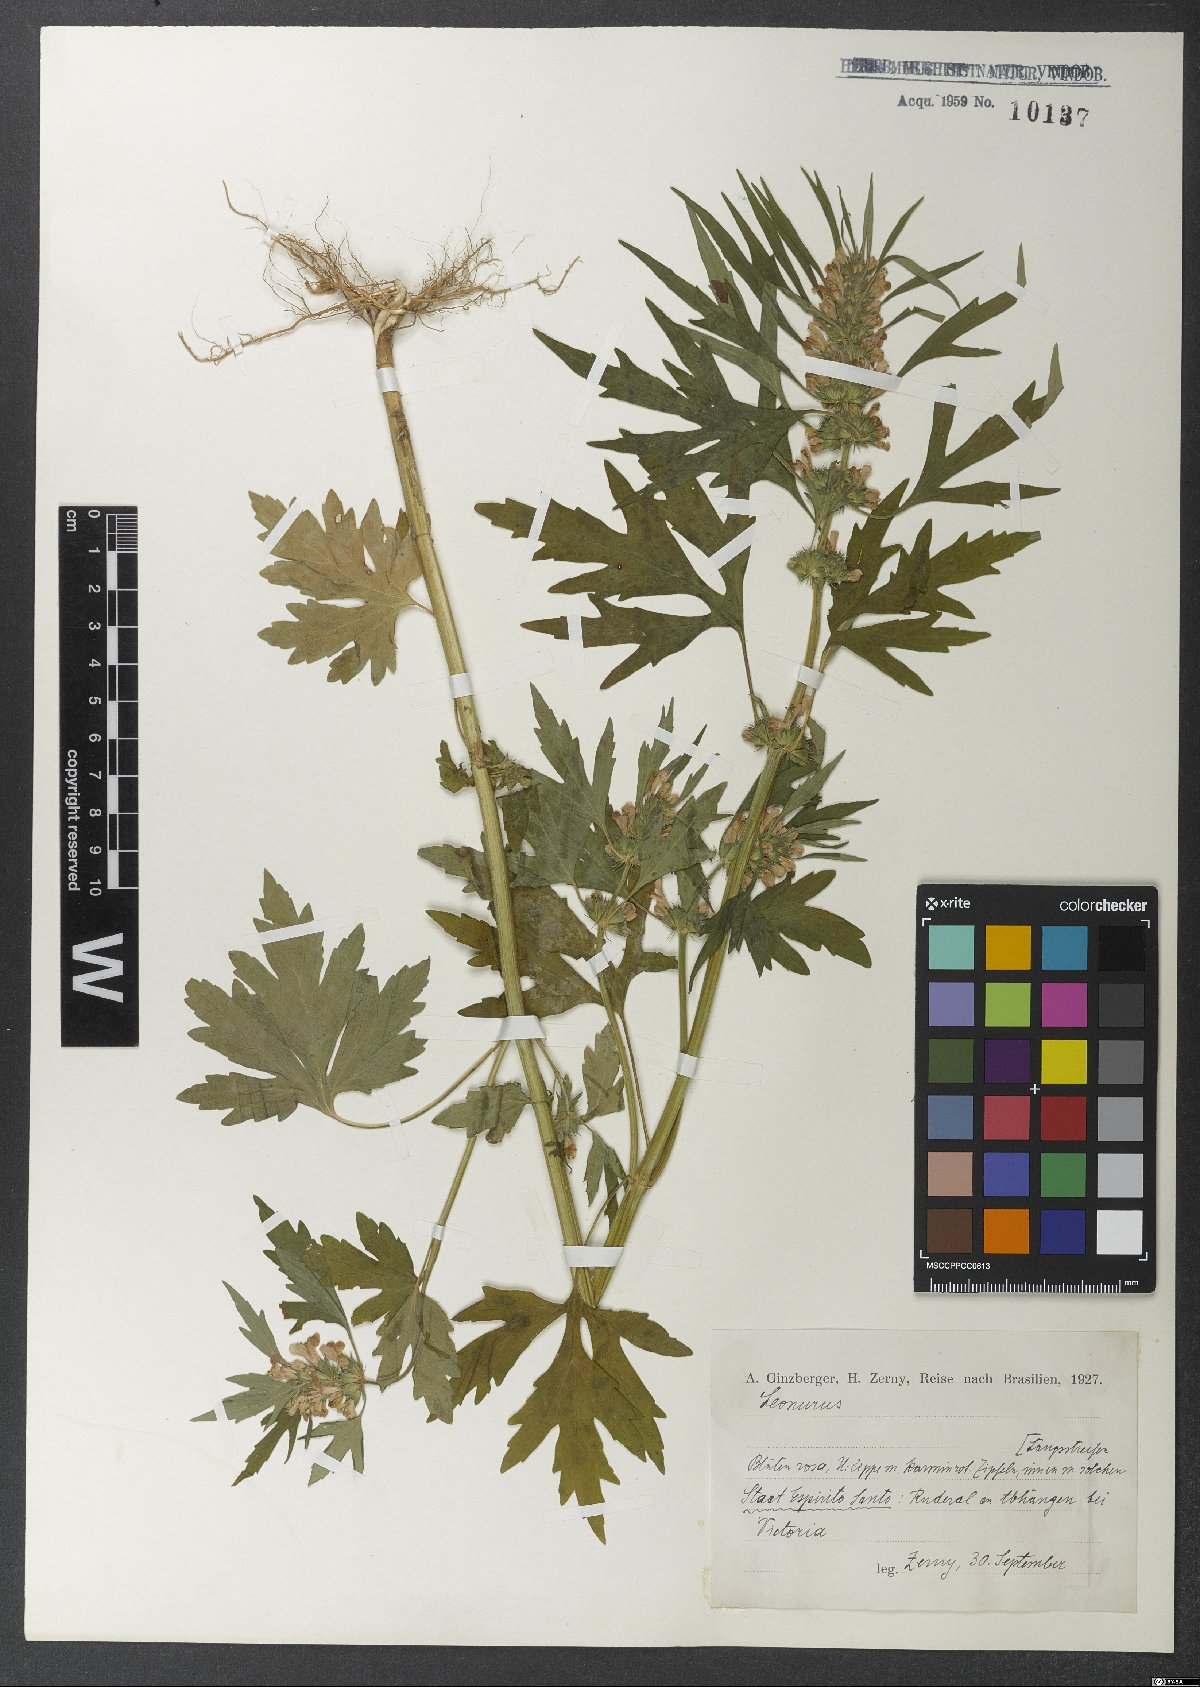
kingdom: Plantae
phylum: Tracheophyta
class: Magnoliopsida
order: Lamiales
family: Lamiaceae
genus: Leonurus
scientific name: Leonurus
